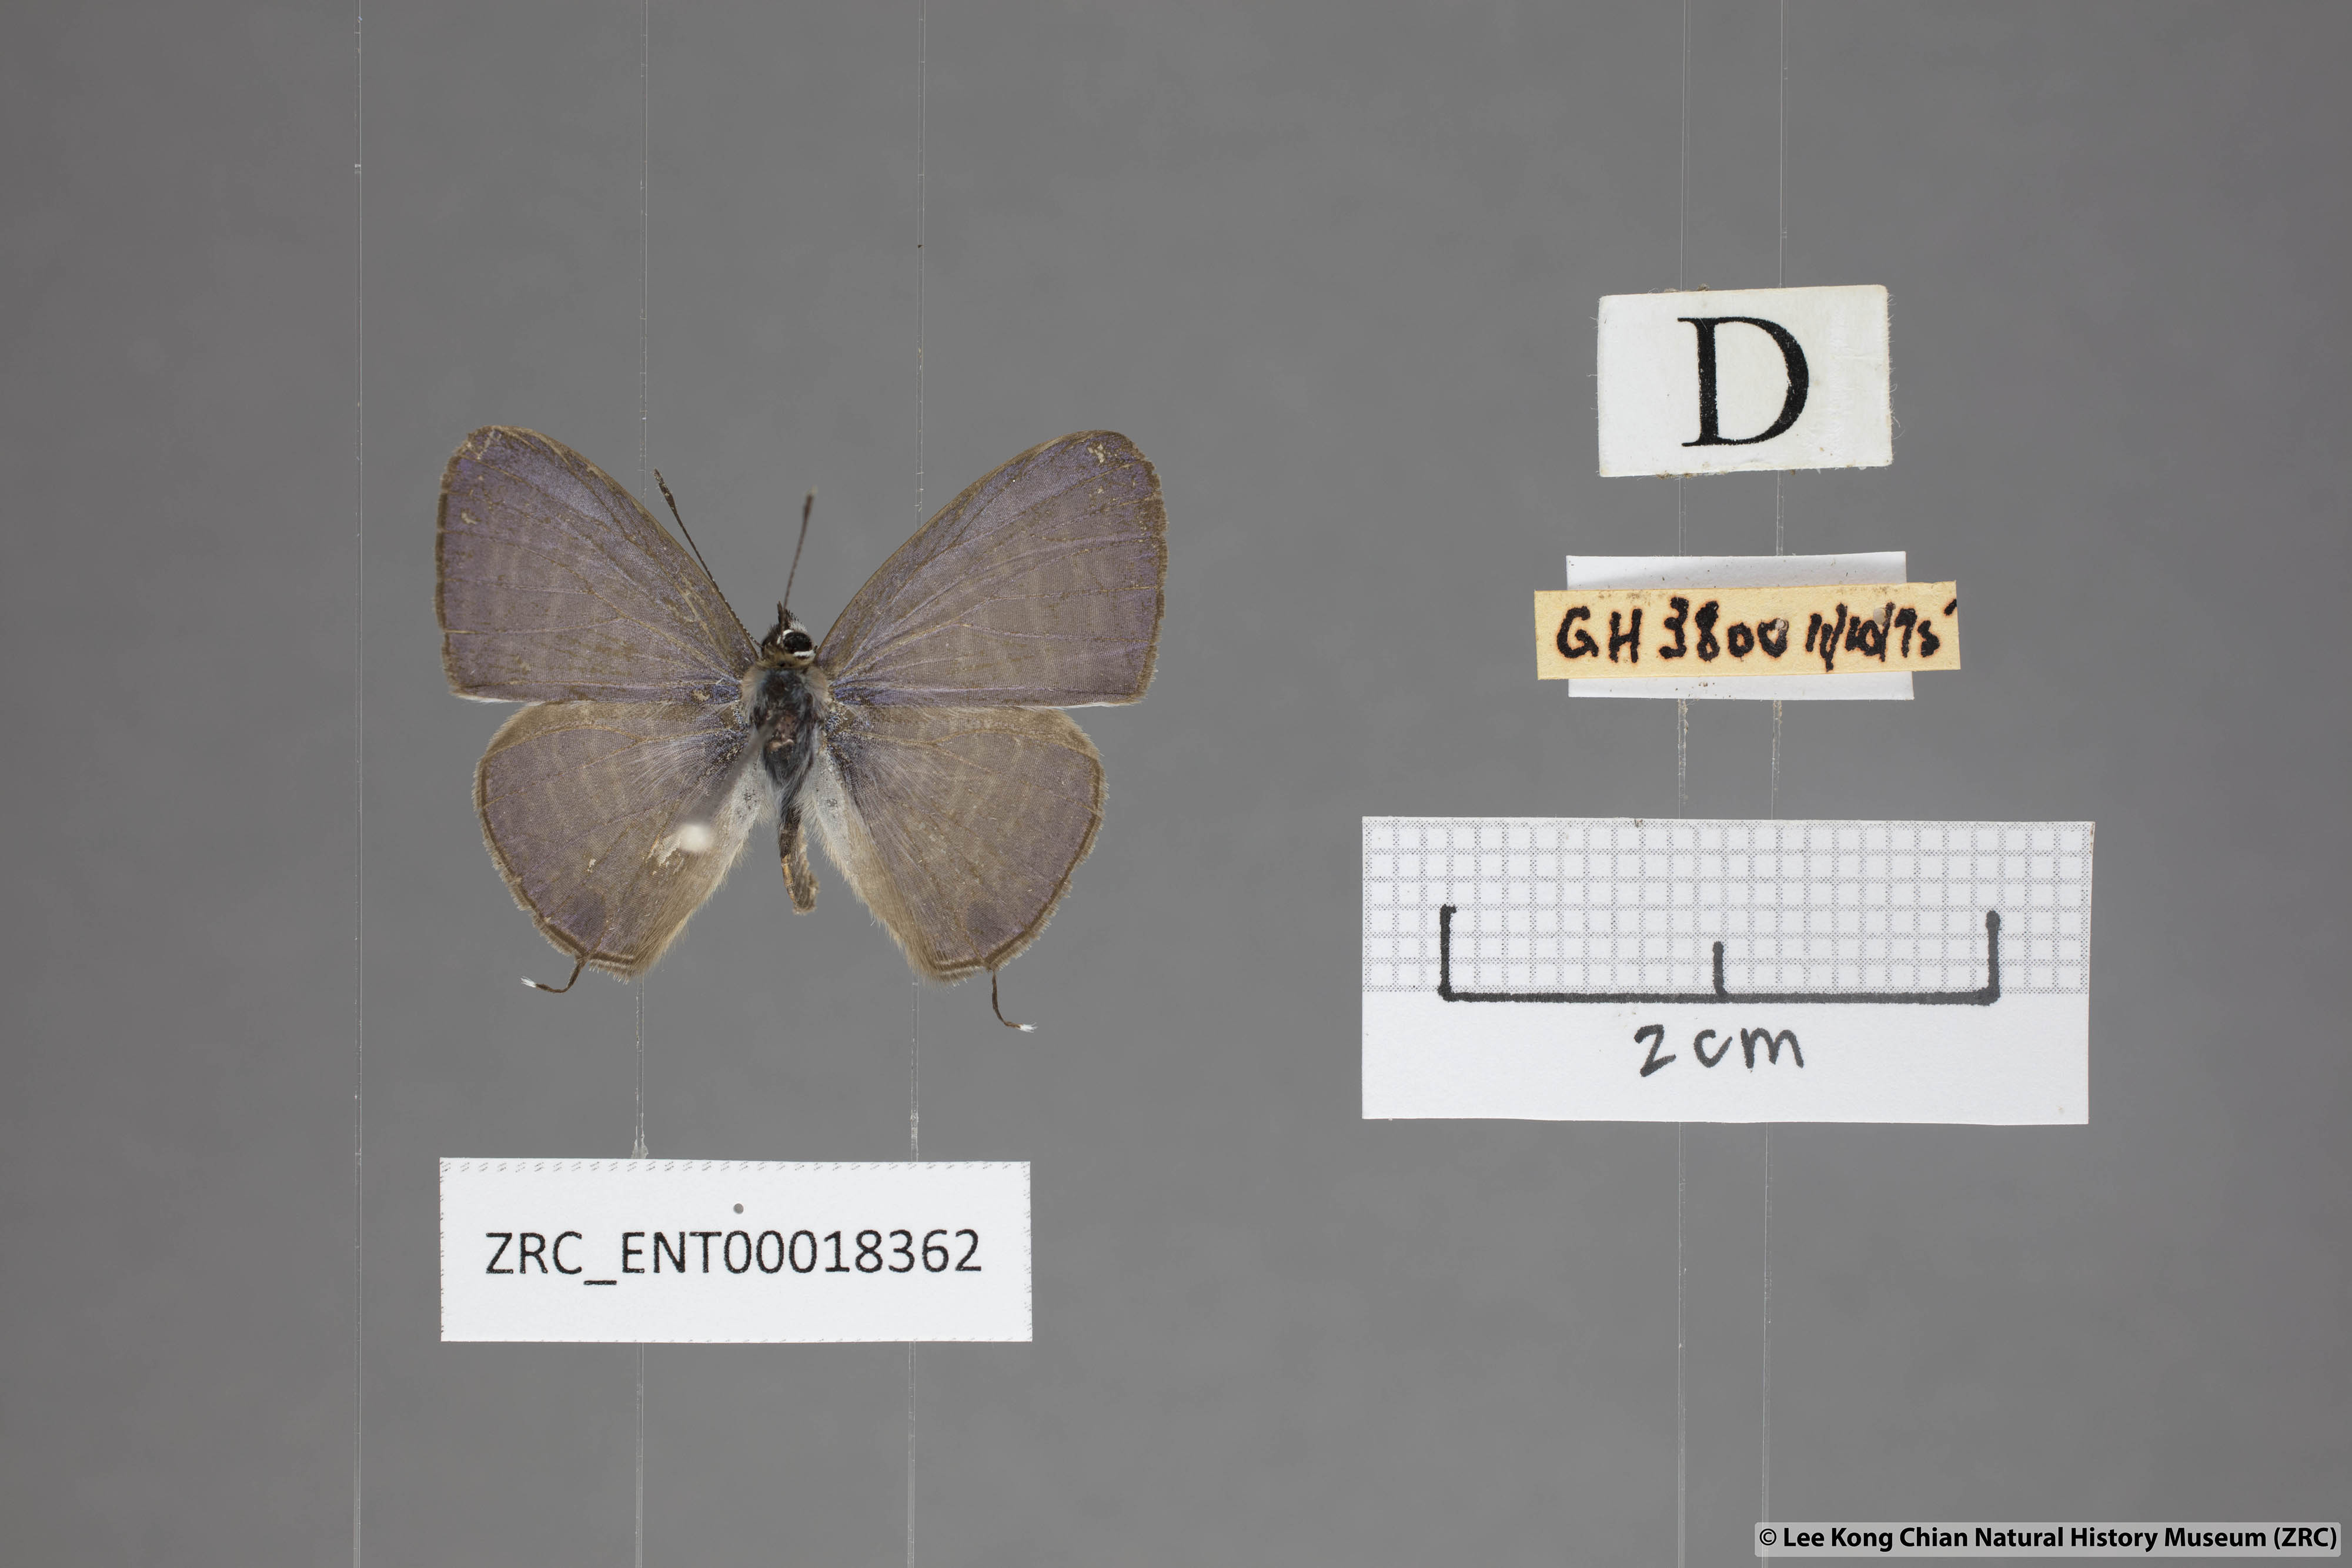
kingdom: Animalia
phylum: Arthropoda
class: Insecta
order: Lepidoptera
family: Lycaenidae
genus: Nacaduba
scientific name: Nacaduba kurava
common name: Transparent 6-line blue
